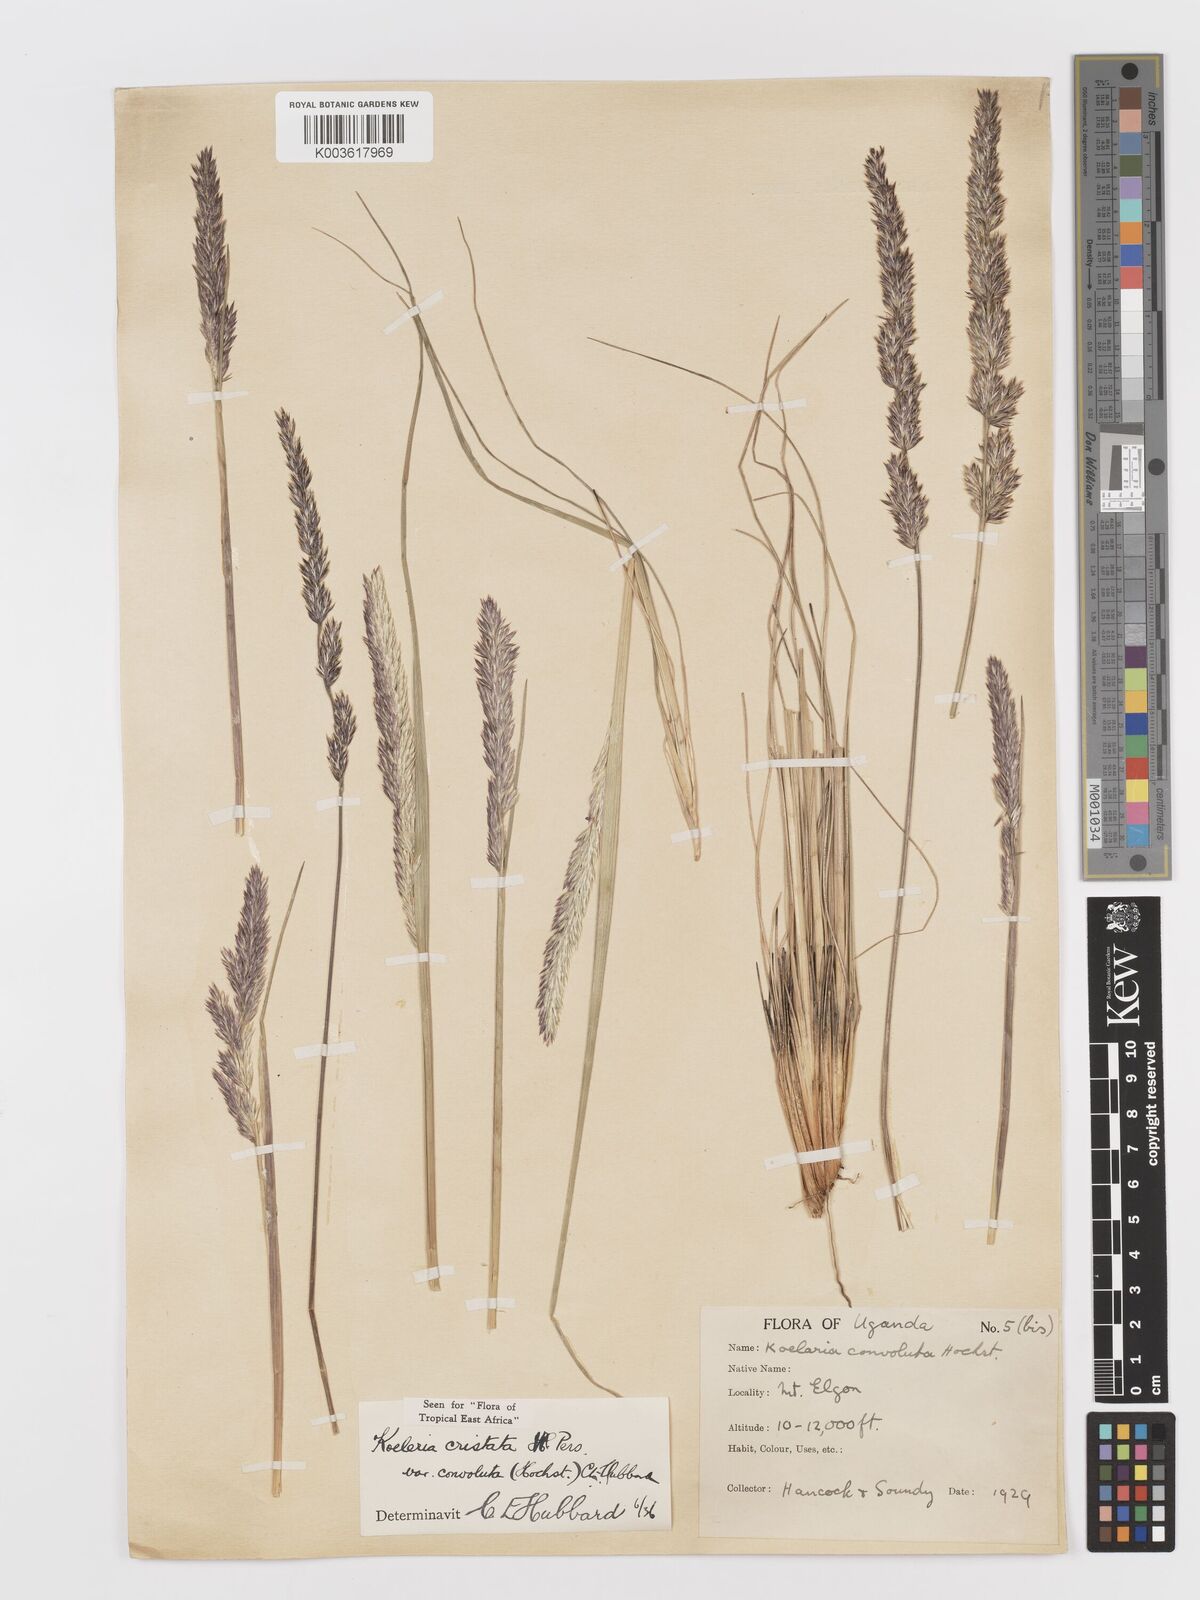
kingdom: Plantae
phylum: Tracheophyta
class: Liliopsida
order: Poales
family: Poaceae
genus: Koeleria
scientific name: Koeleria capensis
